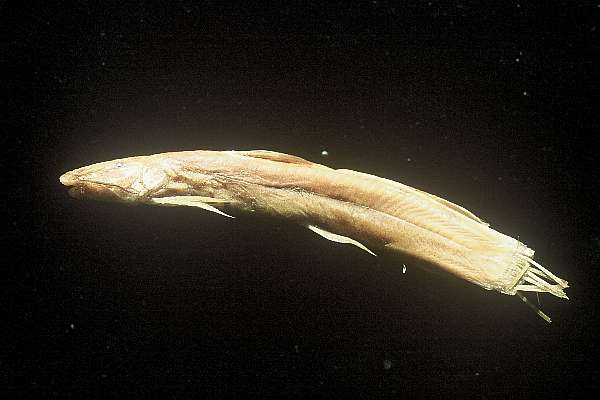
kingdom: Animalia
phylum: Chordata
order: Siluriformes
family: Amphiliidae
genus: Amphilius
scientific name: Amphilius uranoscopus
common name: Stargazer mountain catfish
